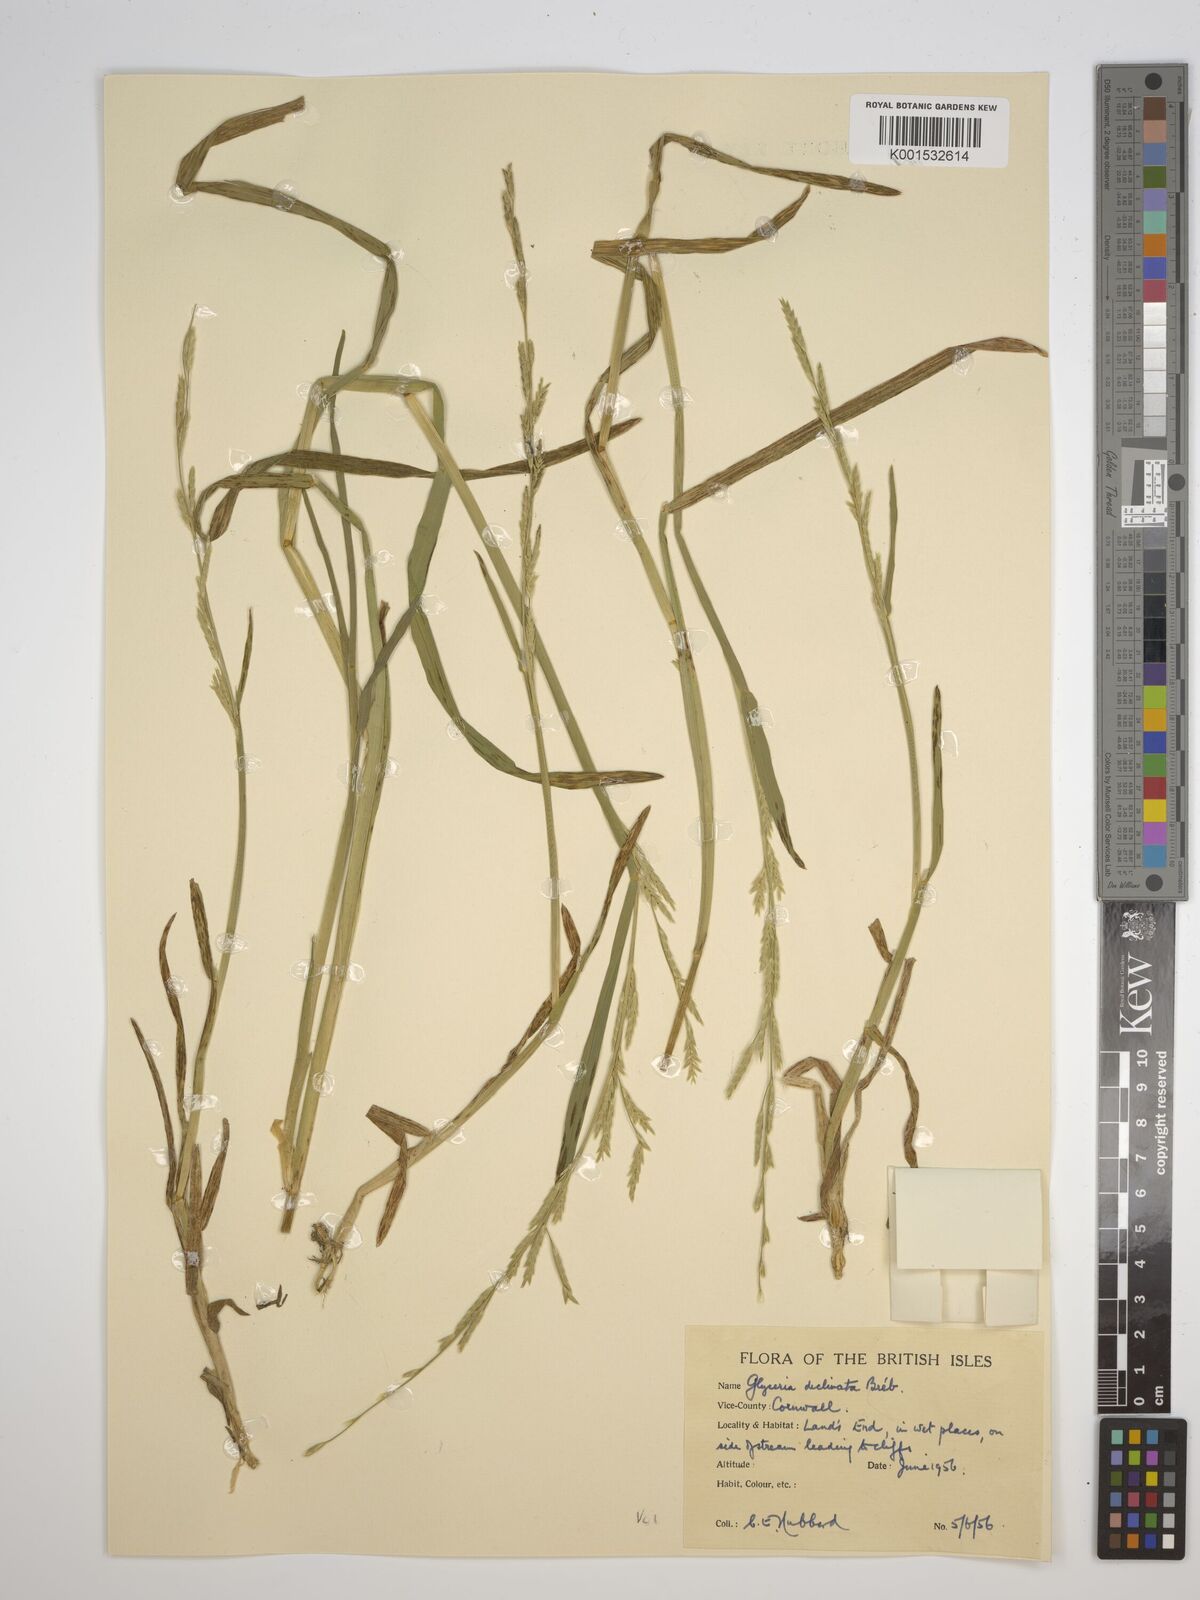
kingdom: Plantae
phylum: Tracheophyta
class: Liliopsida
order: Poales
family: Poaceae
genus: Glyceria
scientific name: Glyceria declinata
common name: Small sweet-grass
